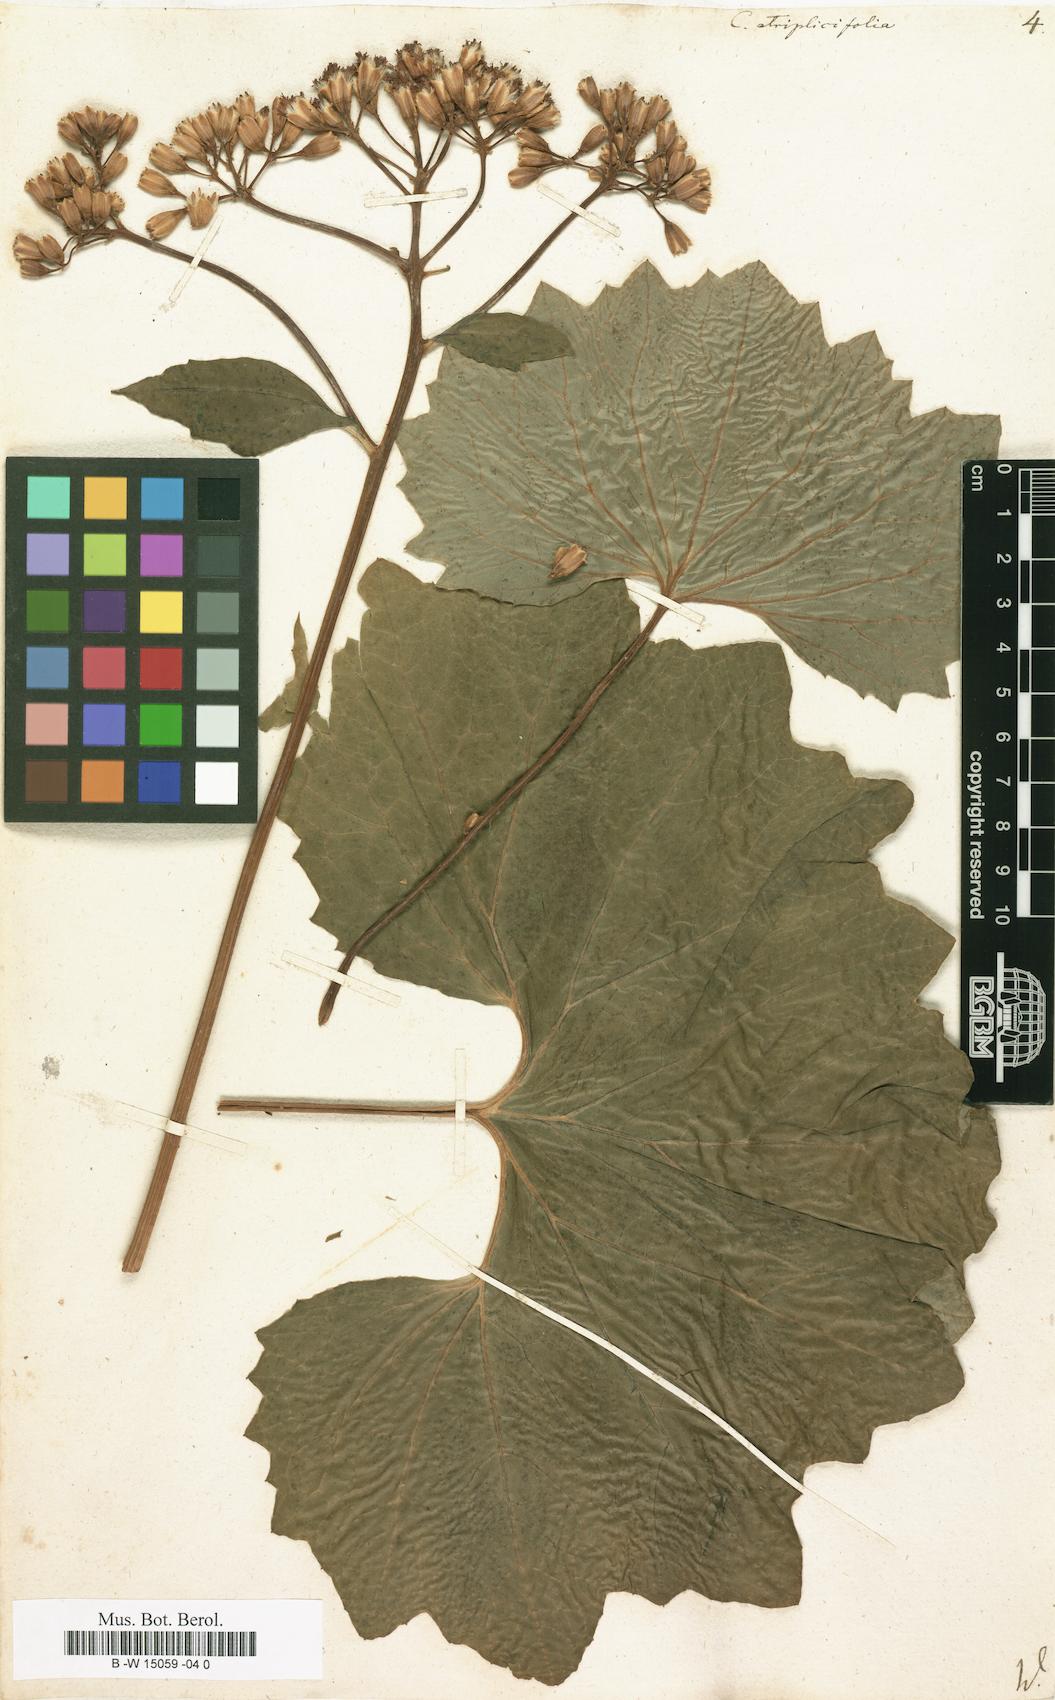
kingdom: Plantae
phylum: Tracheophyta
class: Magnoliopsida
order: Asterales
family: Asteraceae
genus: Arnoglossum
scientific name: Arnoglossum atriplicifolium
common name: Pale indian-plantain
